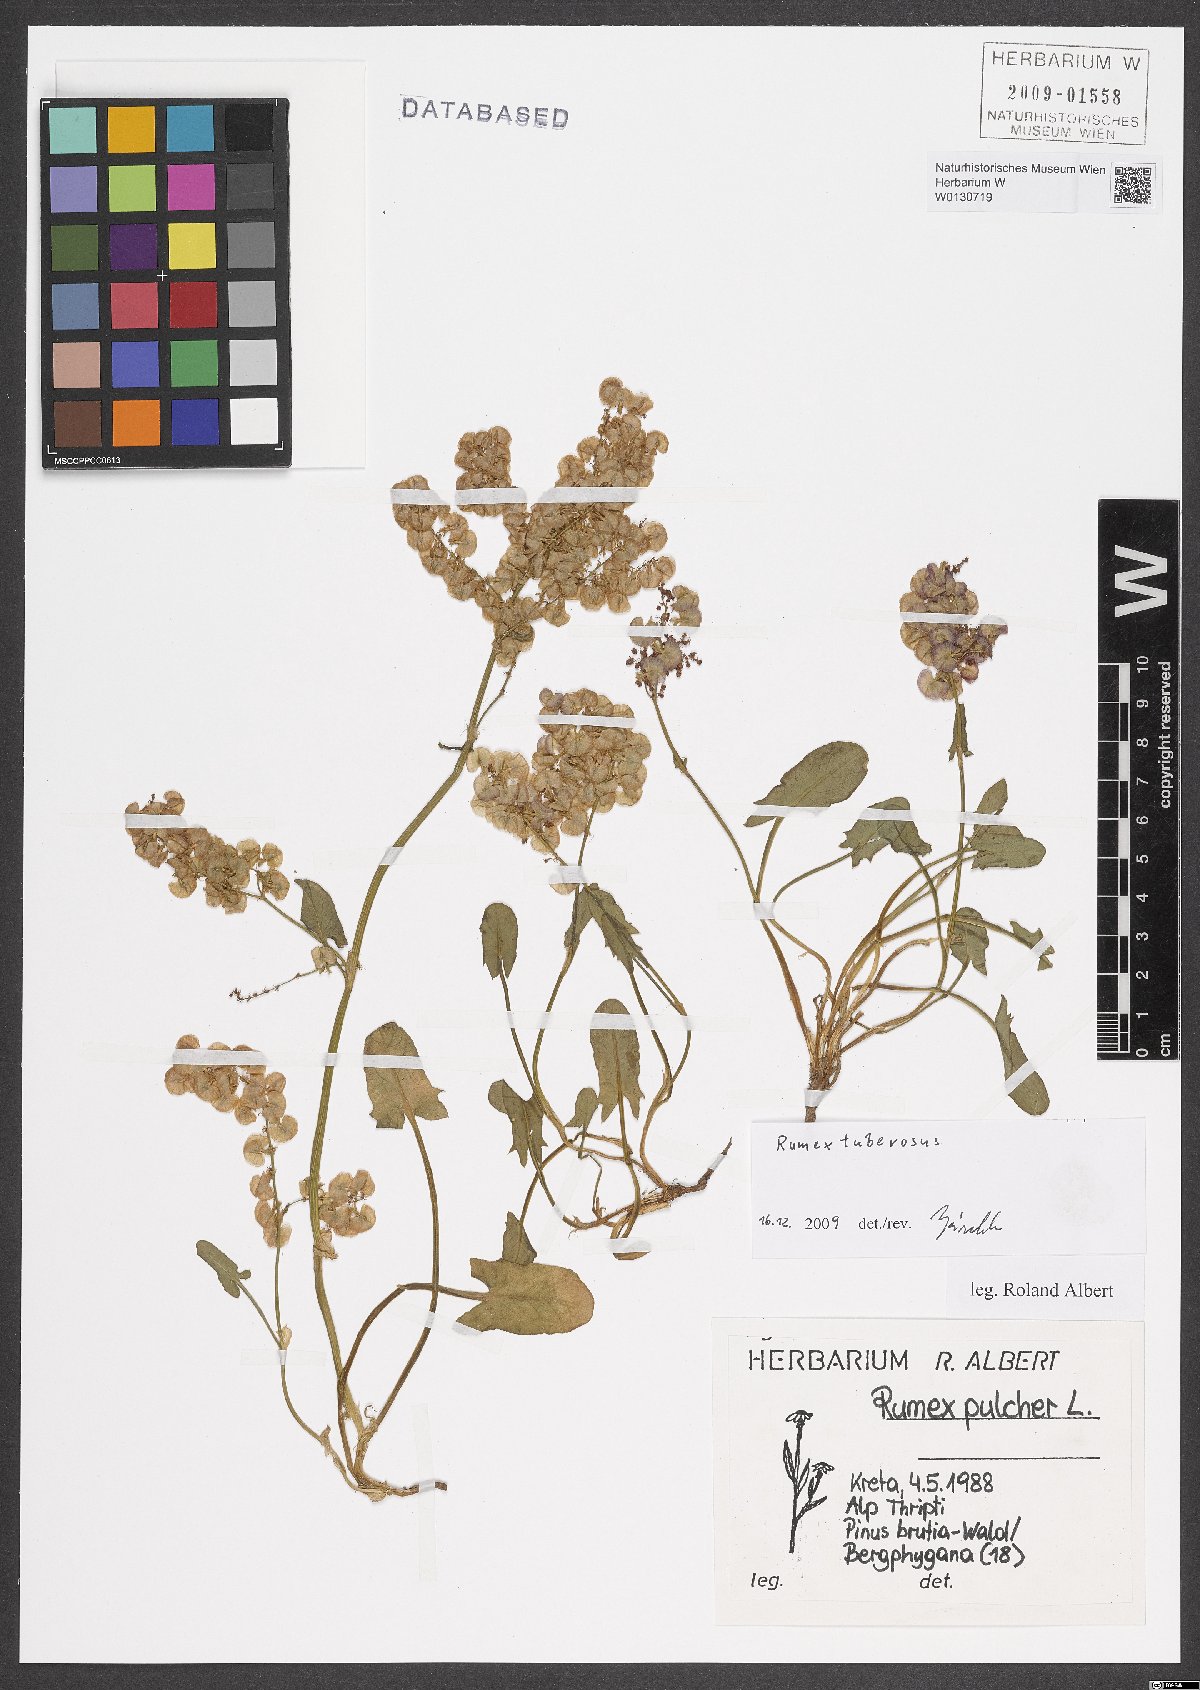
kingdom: Plantae
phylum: Tracheophyta
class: Magnoliopsida
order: Caryophyllales
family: Polygonaceae
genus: Rumex
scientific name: Rumex tuberosus
